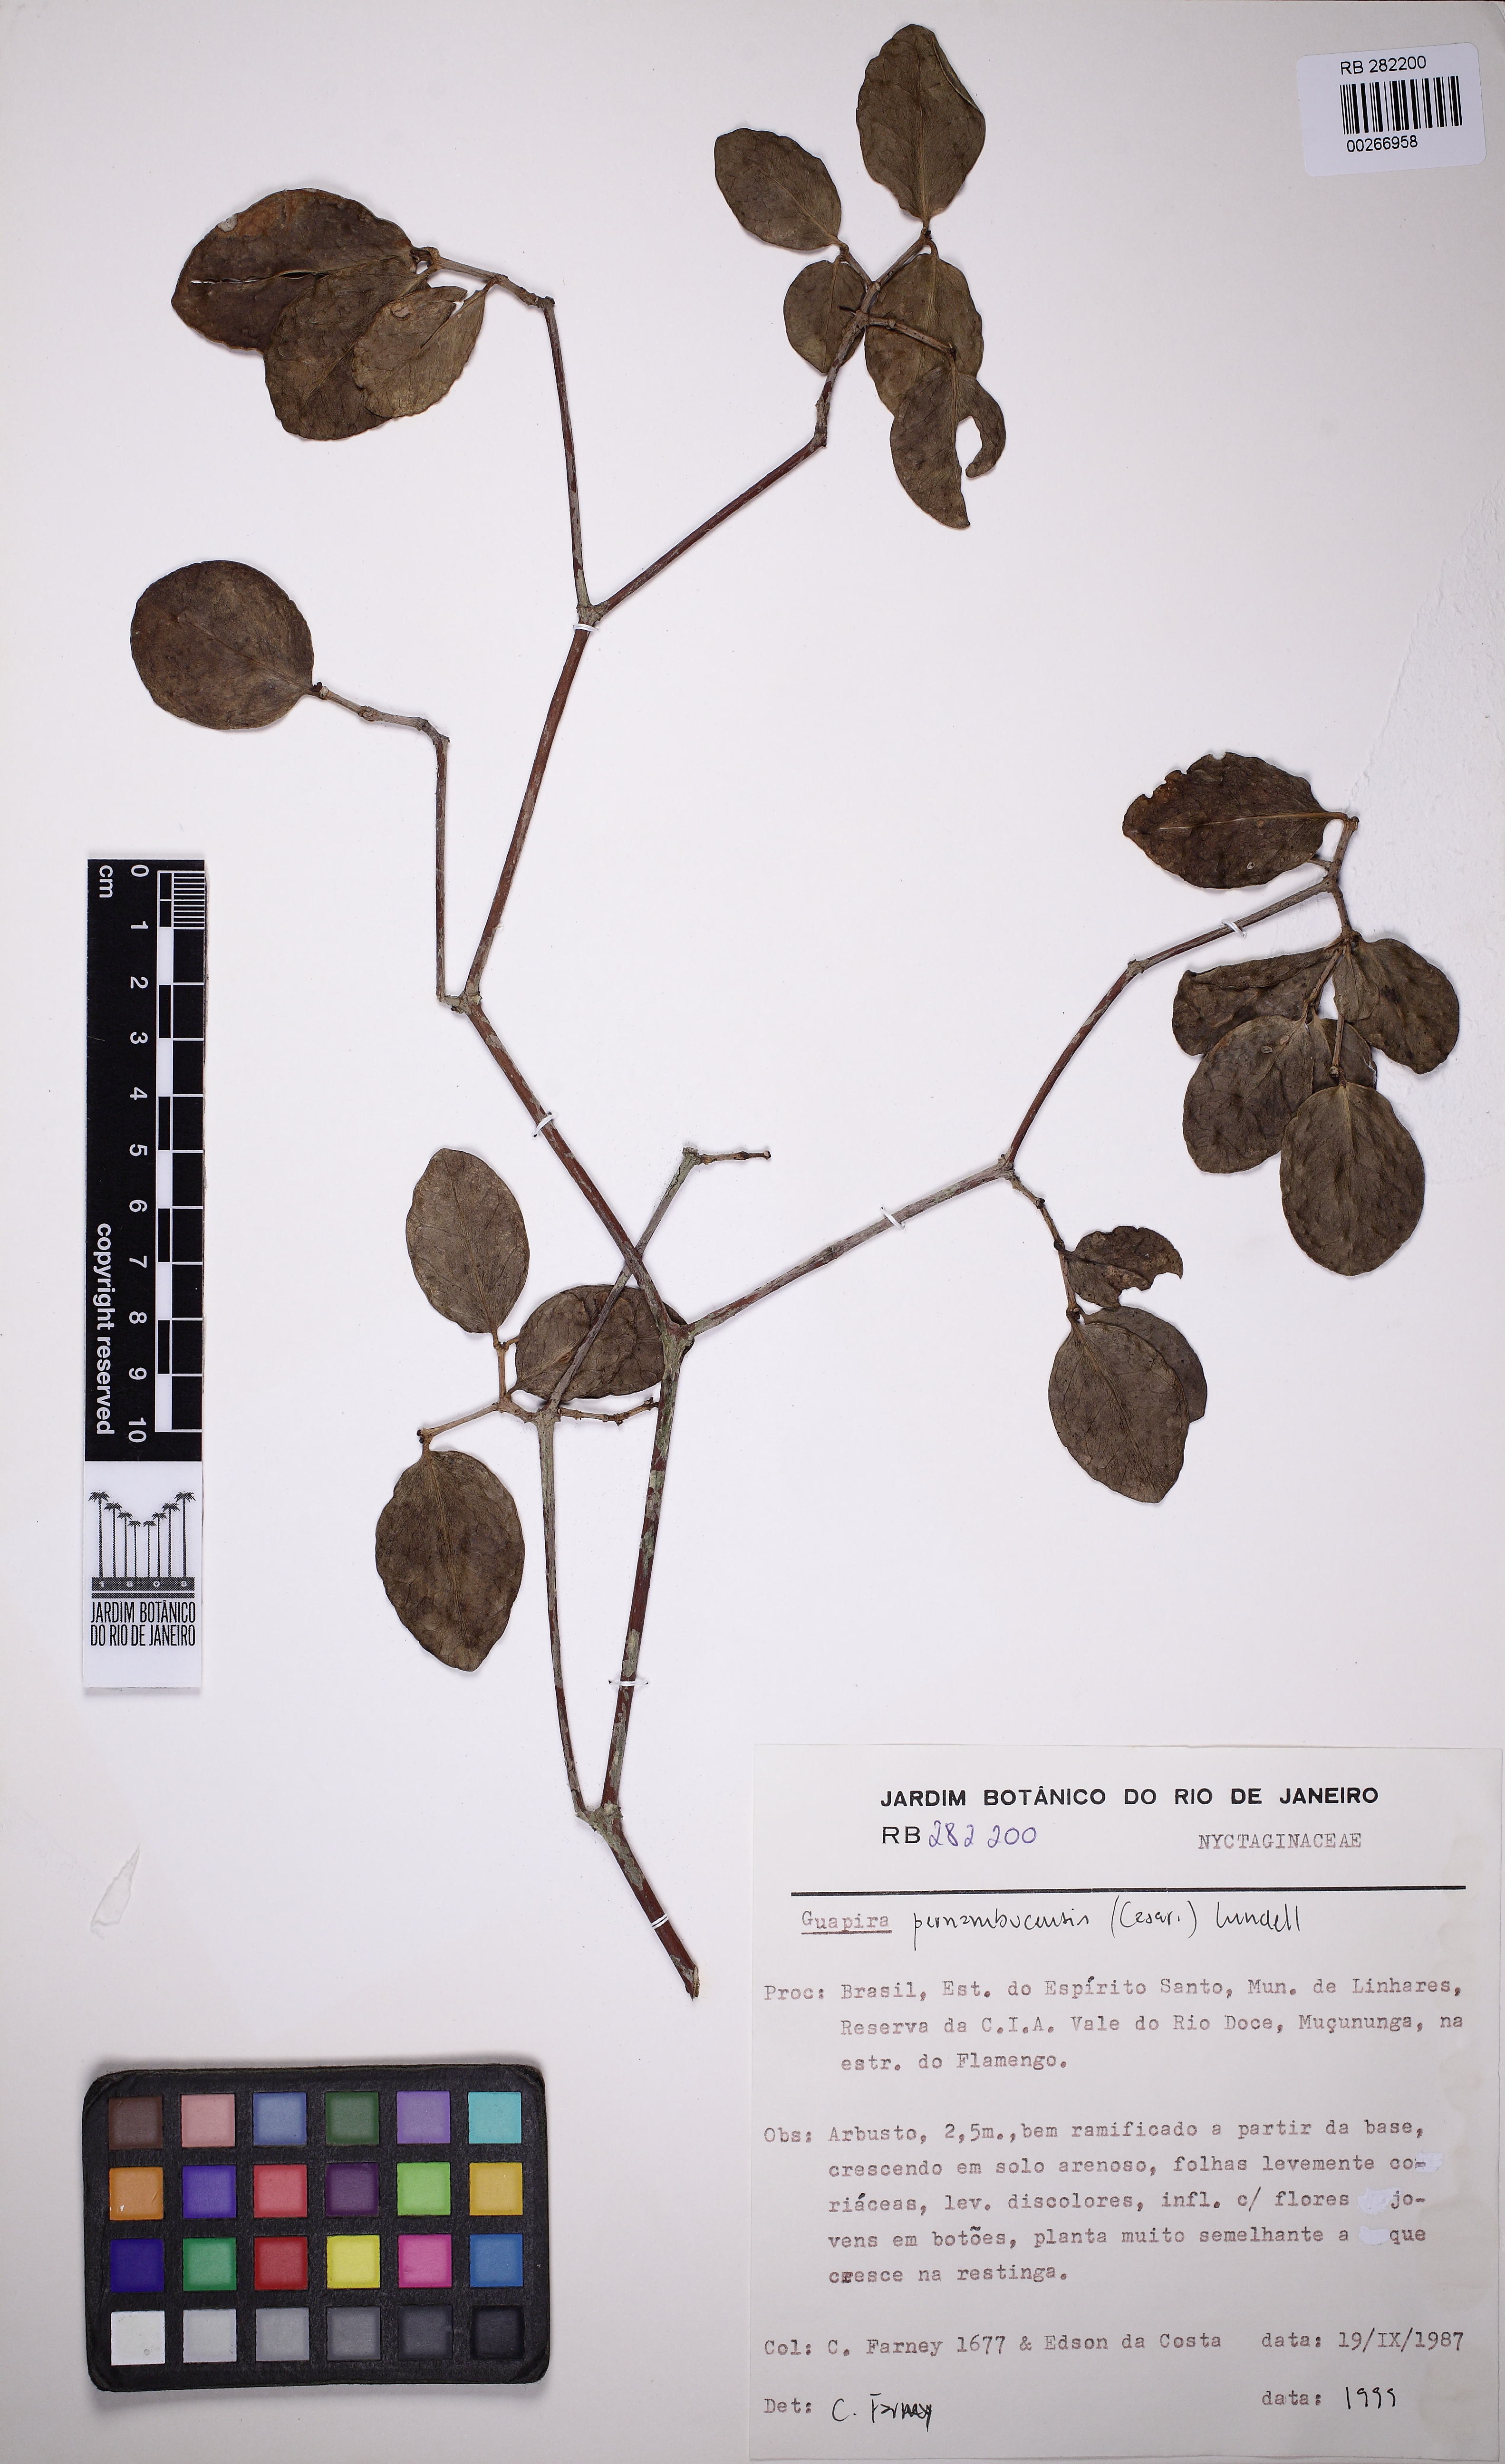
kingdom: Plantae
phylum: Tracheophyta
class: Magnoliopsida
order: Caryophyllales
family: Nyctaginaceae
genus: Guapira
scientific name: Guapira pernambucensis
